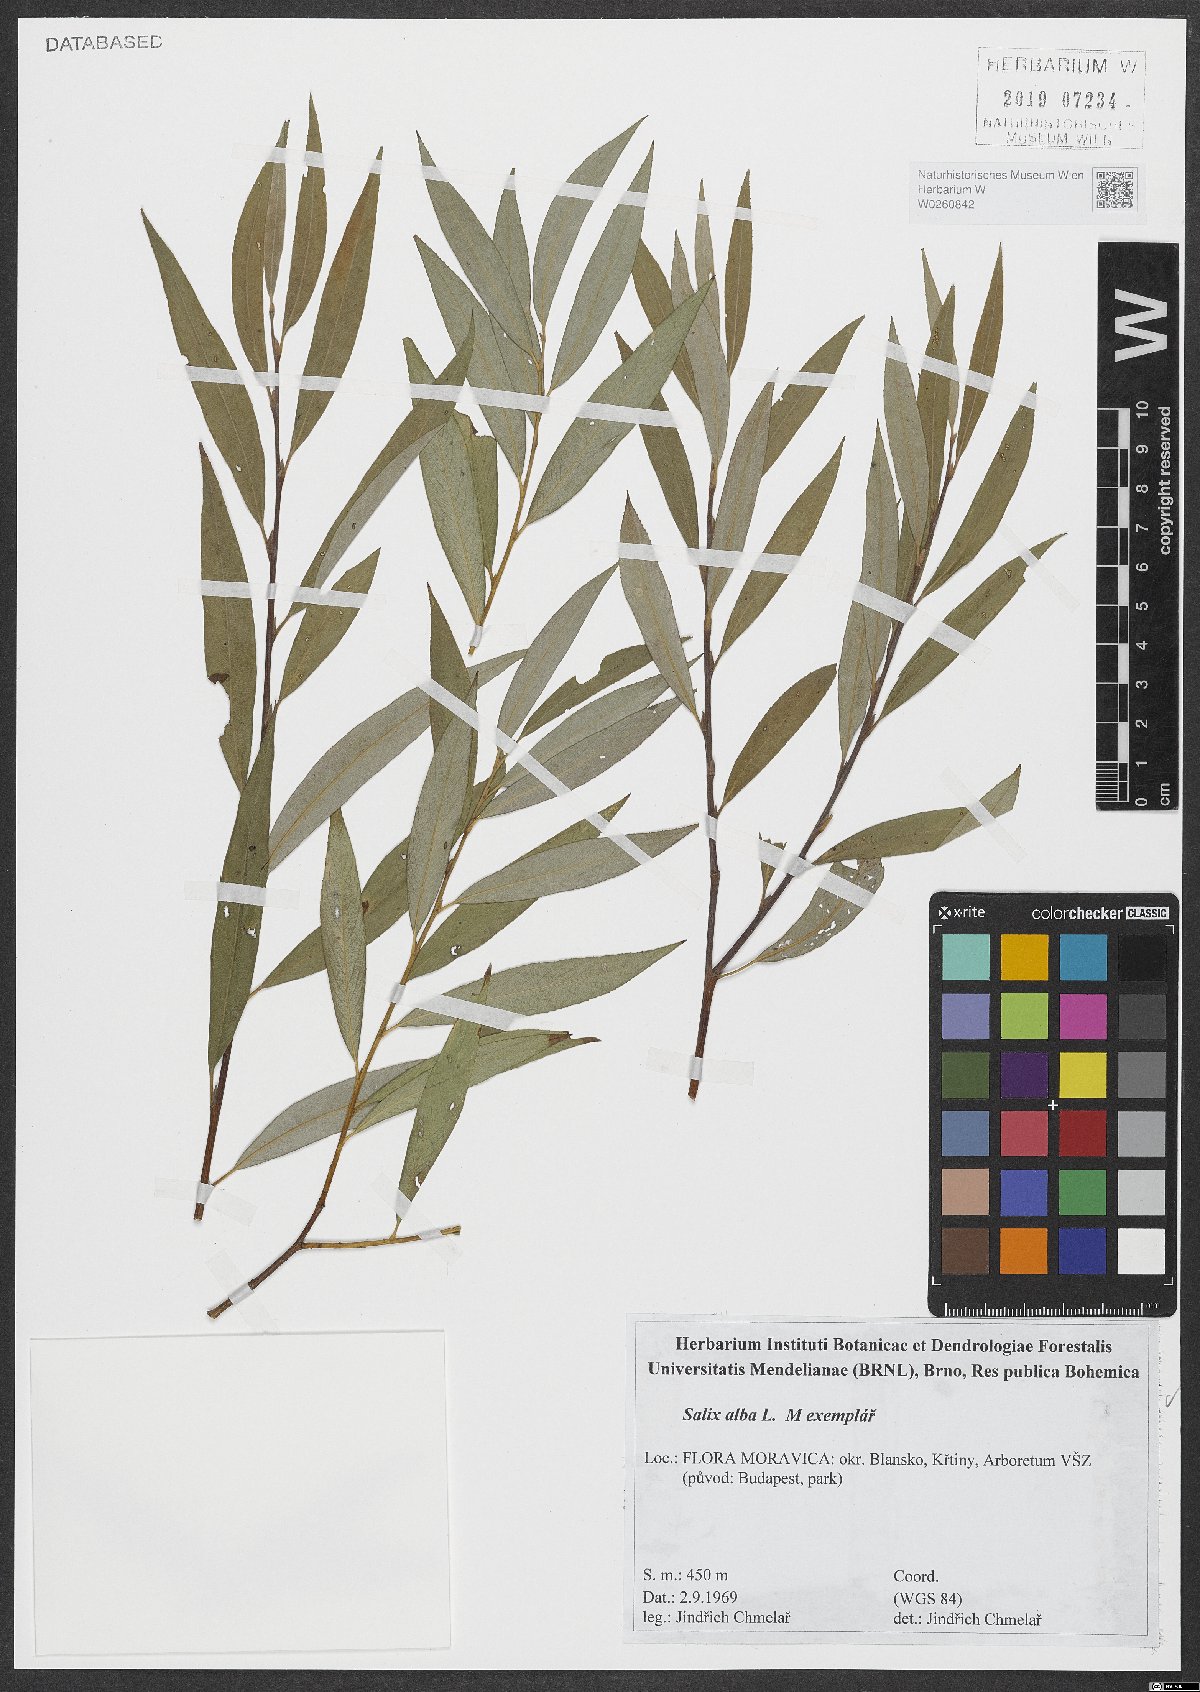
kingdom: Plantae
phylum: Tracheophyta
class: Magnoliopsida
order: Malpighiales
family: Salicaceae
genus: Salix
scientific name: Salix alba
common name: White willow
